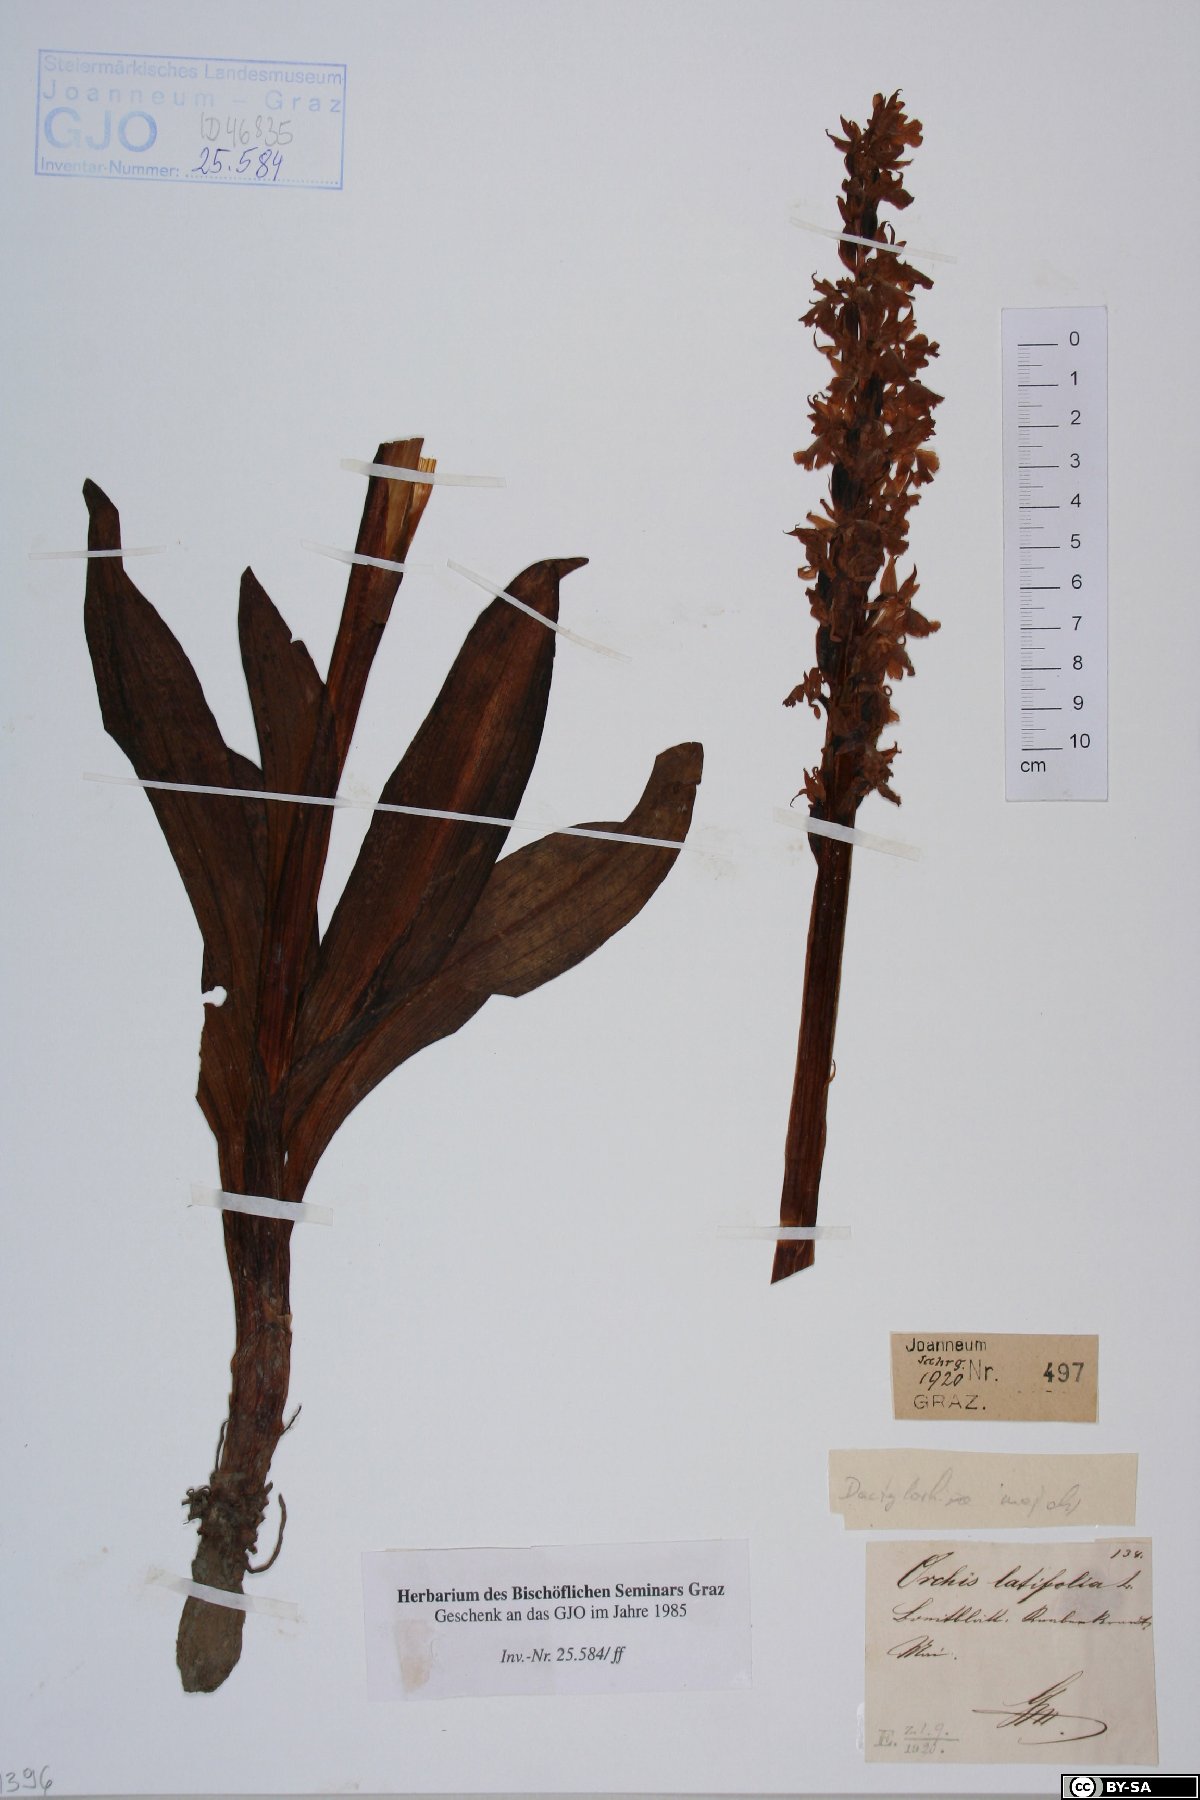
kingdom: Plantae
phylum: Tracheophyta
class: Liliopsida
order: Asparagales
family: Orchidaceae
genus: Dactylorhiza
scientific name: Dactylorhiza incarnata
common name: Early marsh-orchid
